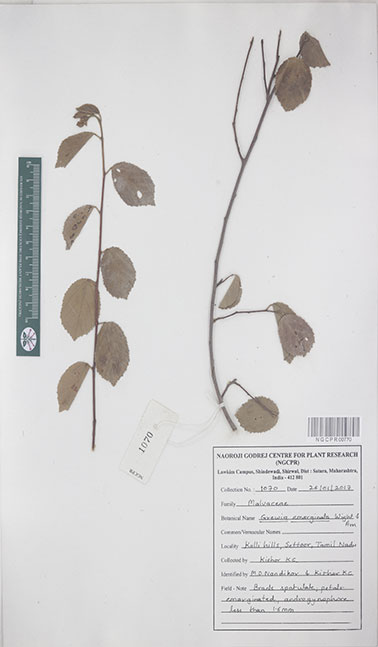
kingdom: Plantae
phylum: Tracheophyta
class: Magnoliopsida
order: Malvales
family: Malvaceae
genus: Grewia
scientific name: Grewia oppositifolia
